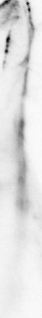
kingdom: Animalia
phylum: Chordata
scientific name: Chordata
